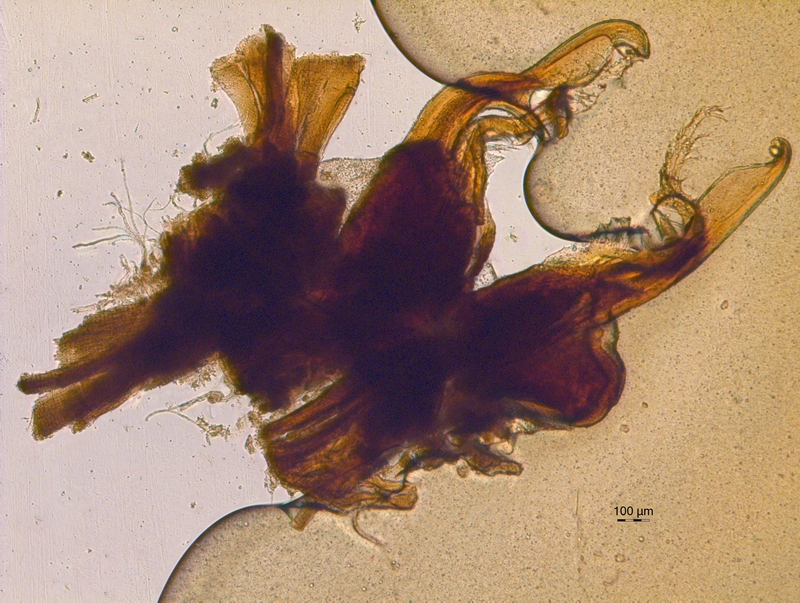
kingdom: Animalia
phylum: Arthropoda
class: Diplopoda
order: Chordeumatida
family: Chordeumatidae
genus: Mycogona
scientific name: Mycogona germanica
